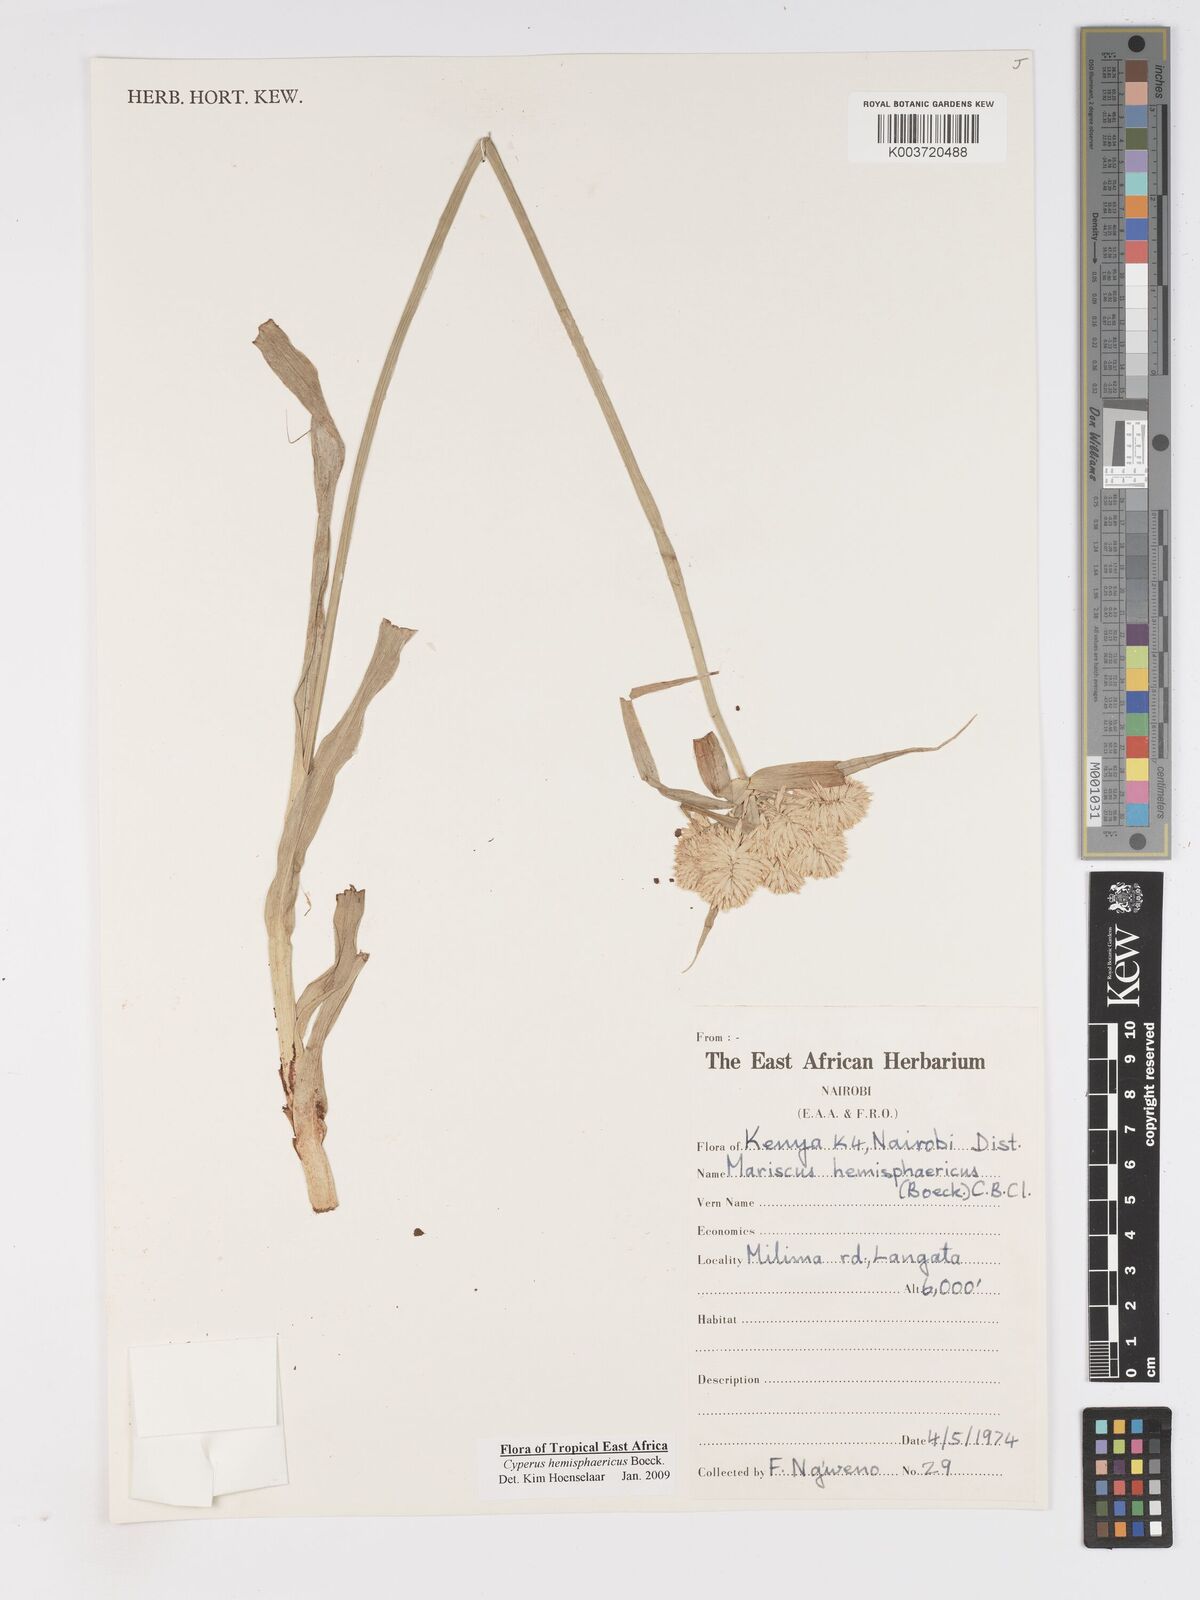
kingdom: Plantae
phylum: Tracheophyta
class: Liliopsida
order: Poales
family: Cyperaceae
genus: Cyperus
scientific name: Cyperus hemisphaericus
